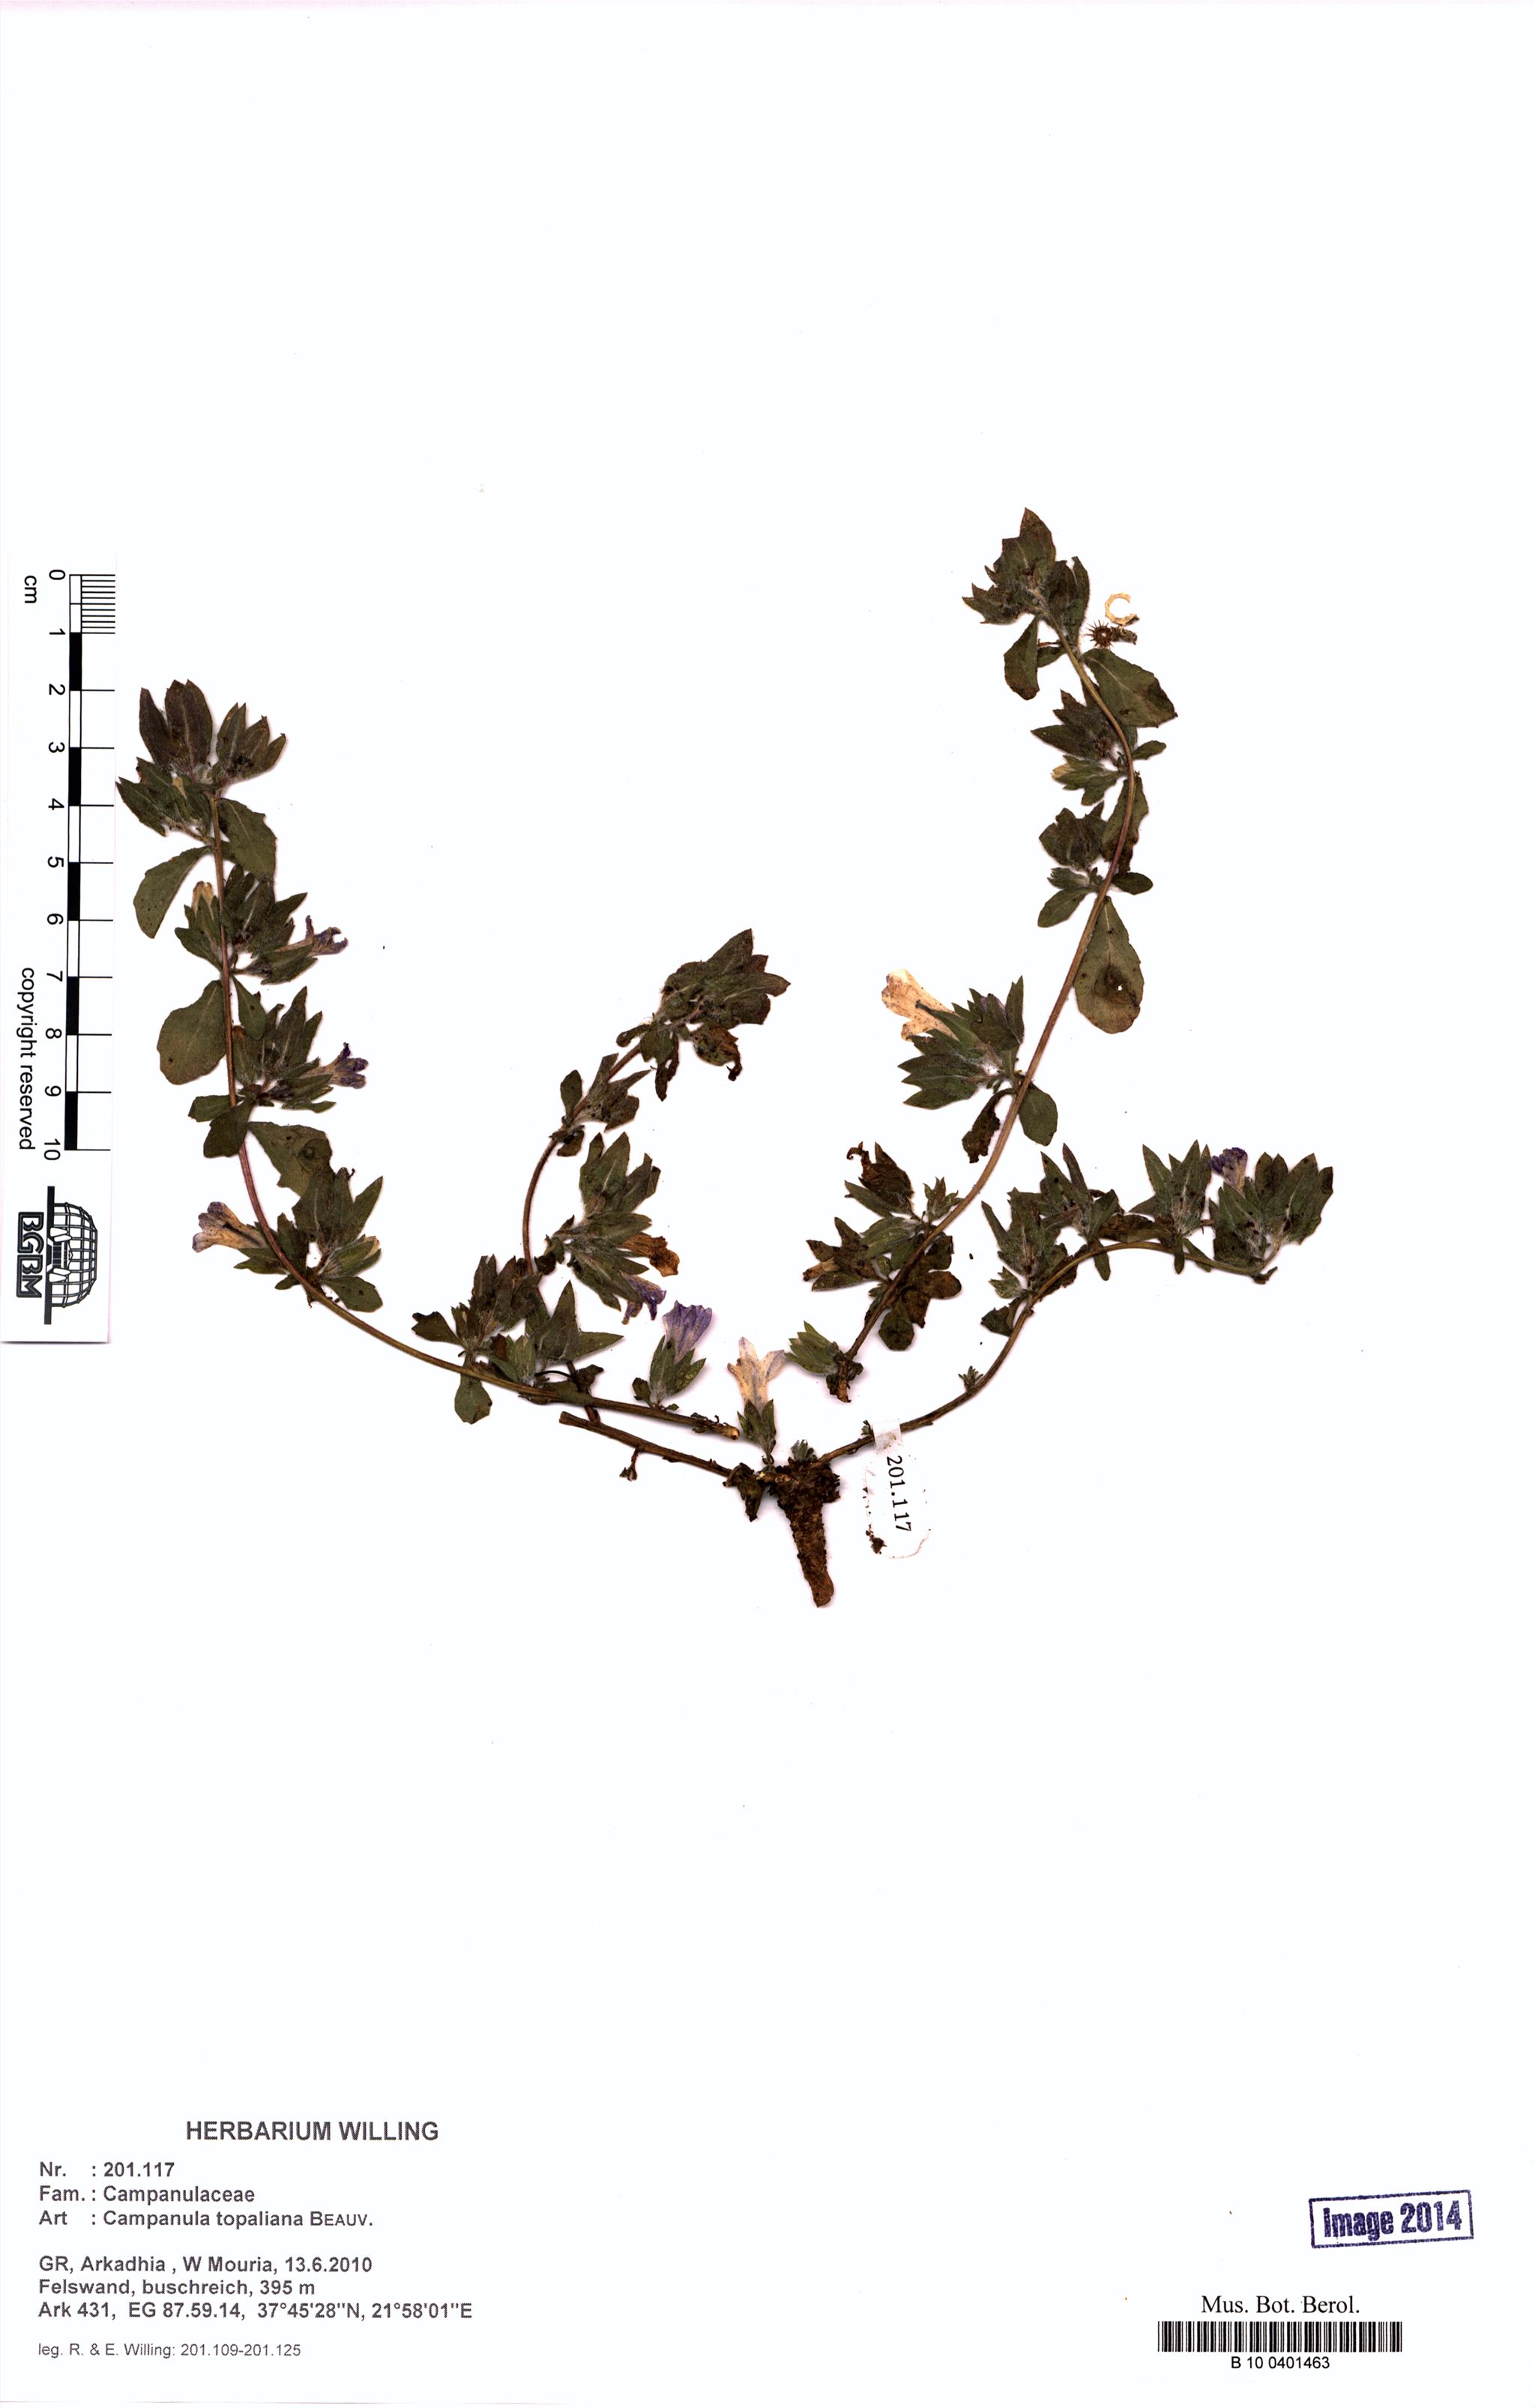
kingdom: Plantae
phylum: Tracheophyta
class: Magnoliopsida
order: Asterales
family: Campanulaceae
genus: Campanula
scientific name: Campanula topaliana
